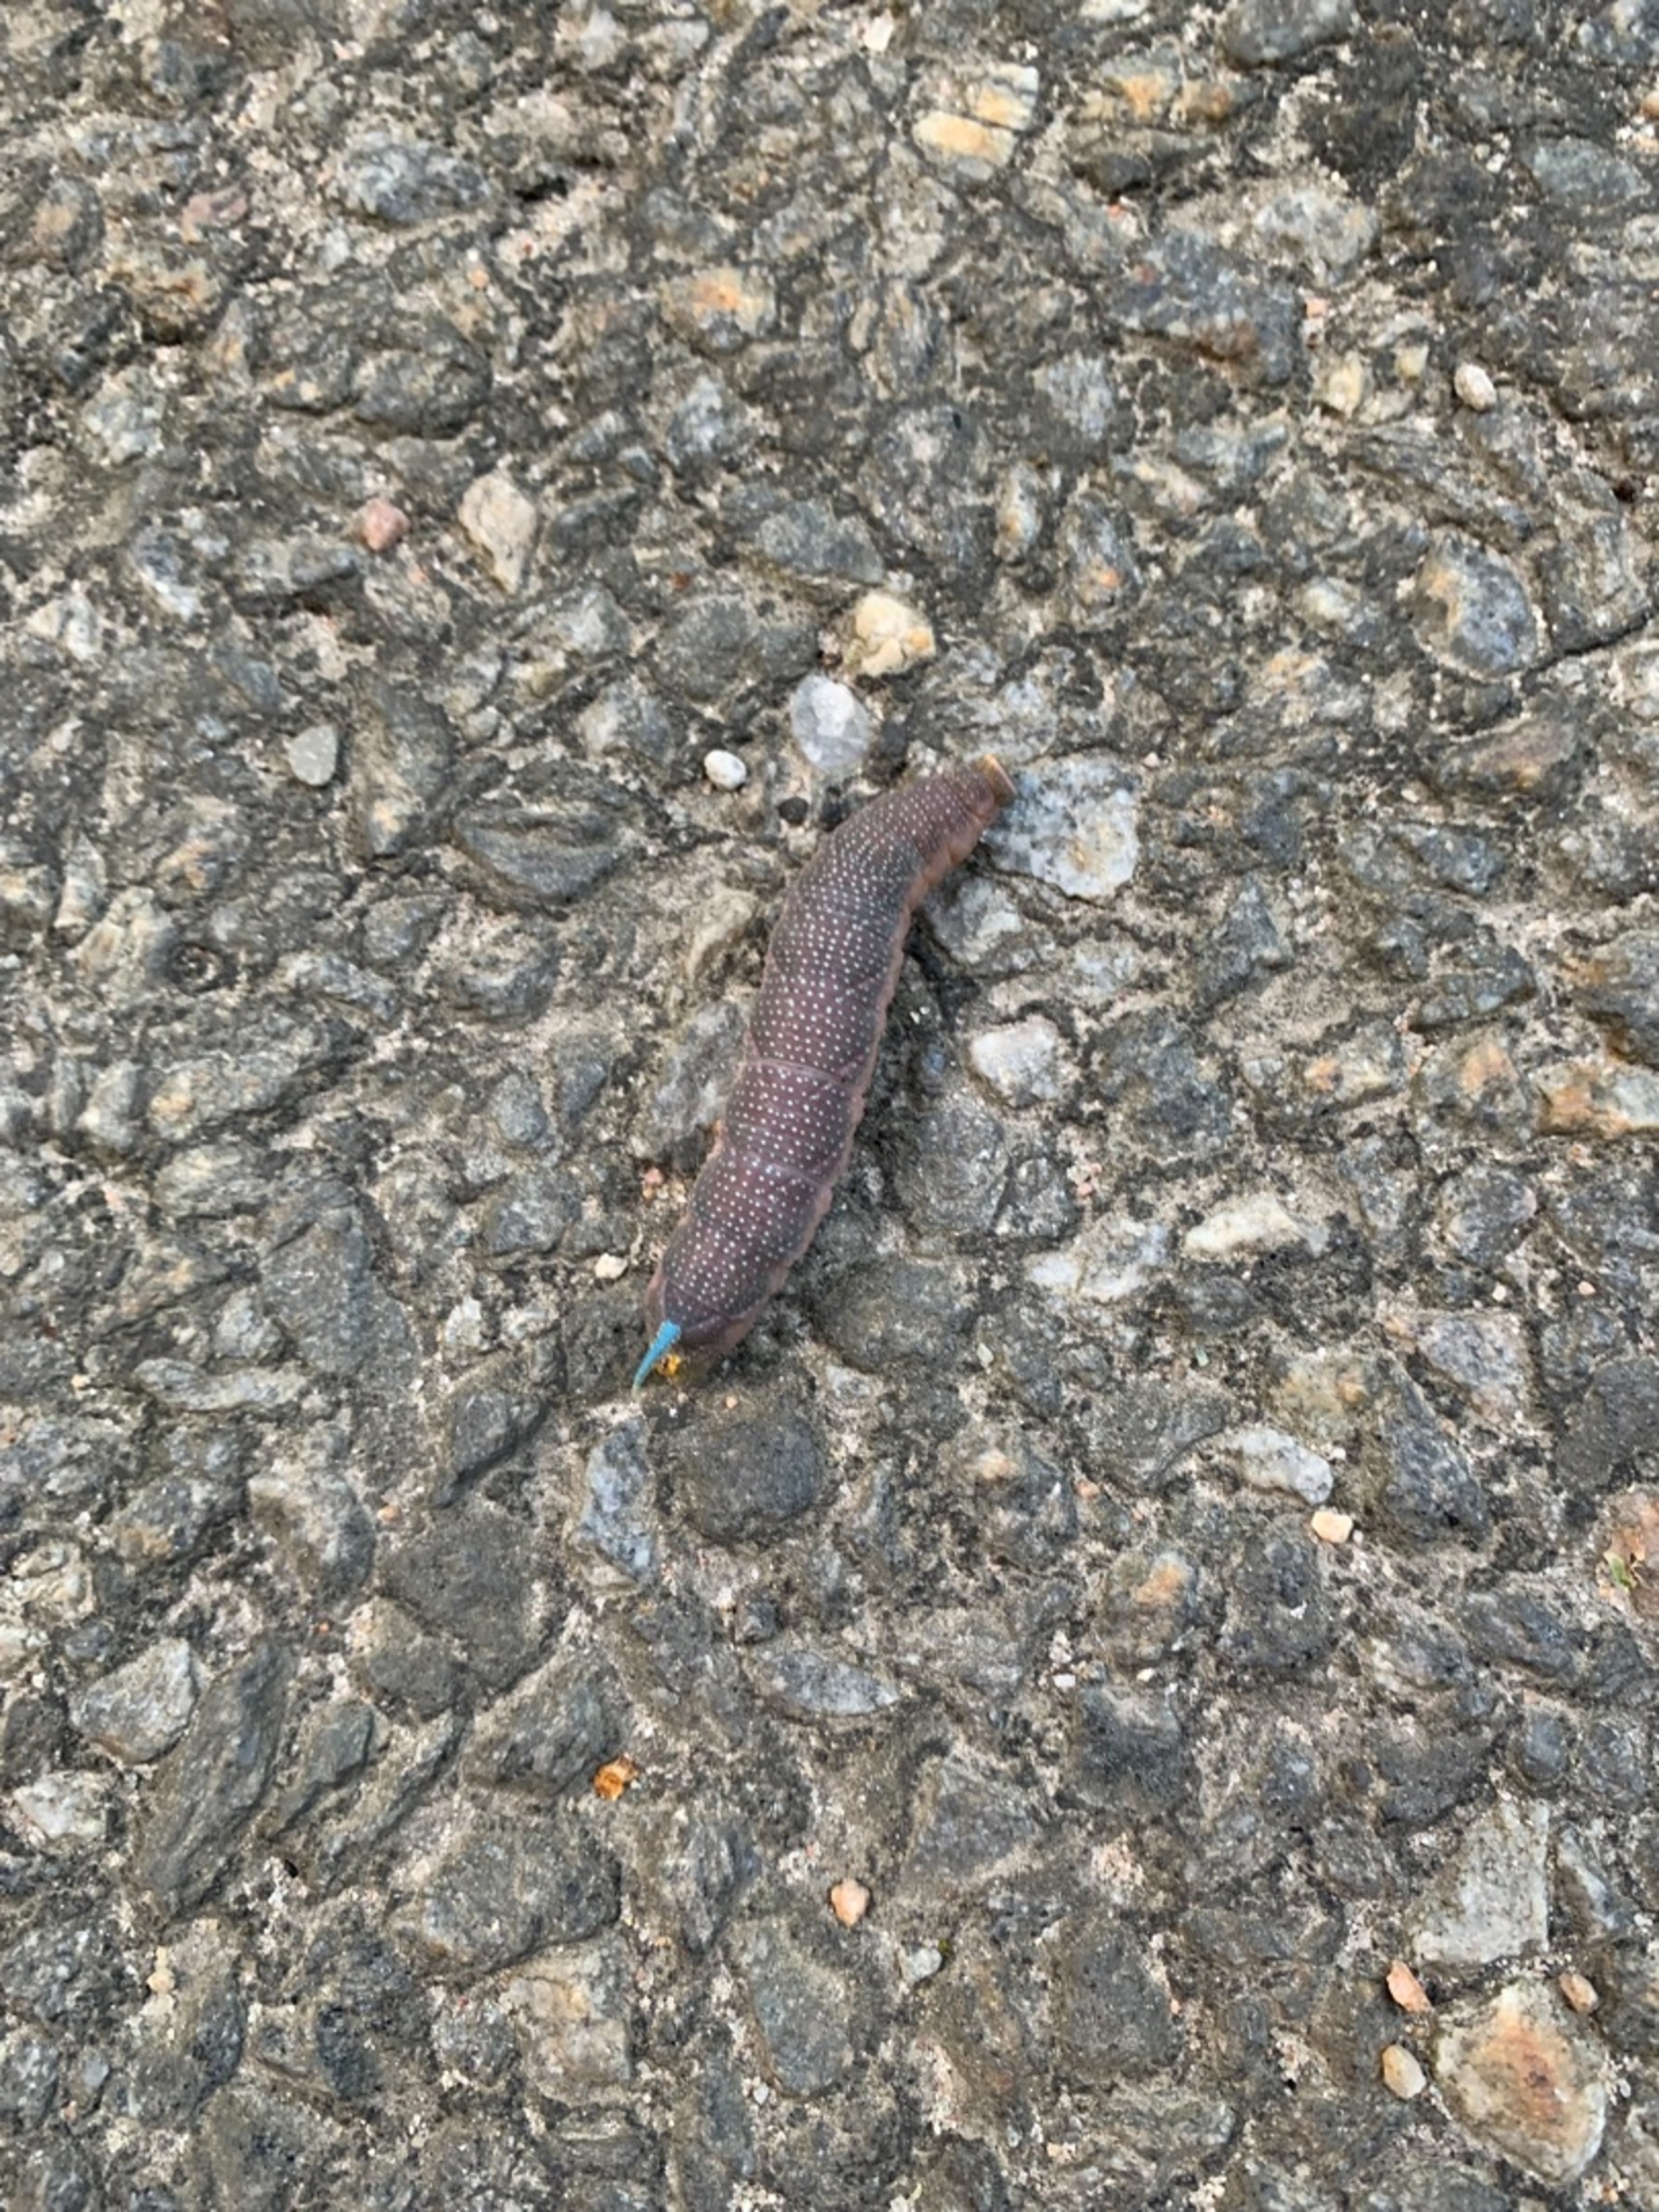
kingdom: Animalia
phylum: Arthropoda
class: Insecta
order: Lepidoptera
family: Sphingidae
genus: Mimas
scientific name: Mimas tiliae
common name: Lindesværmer
